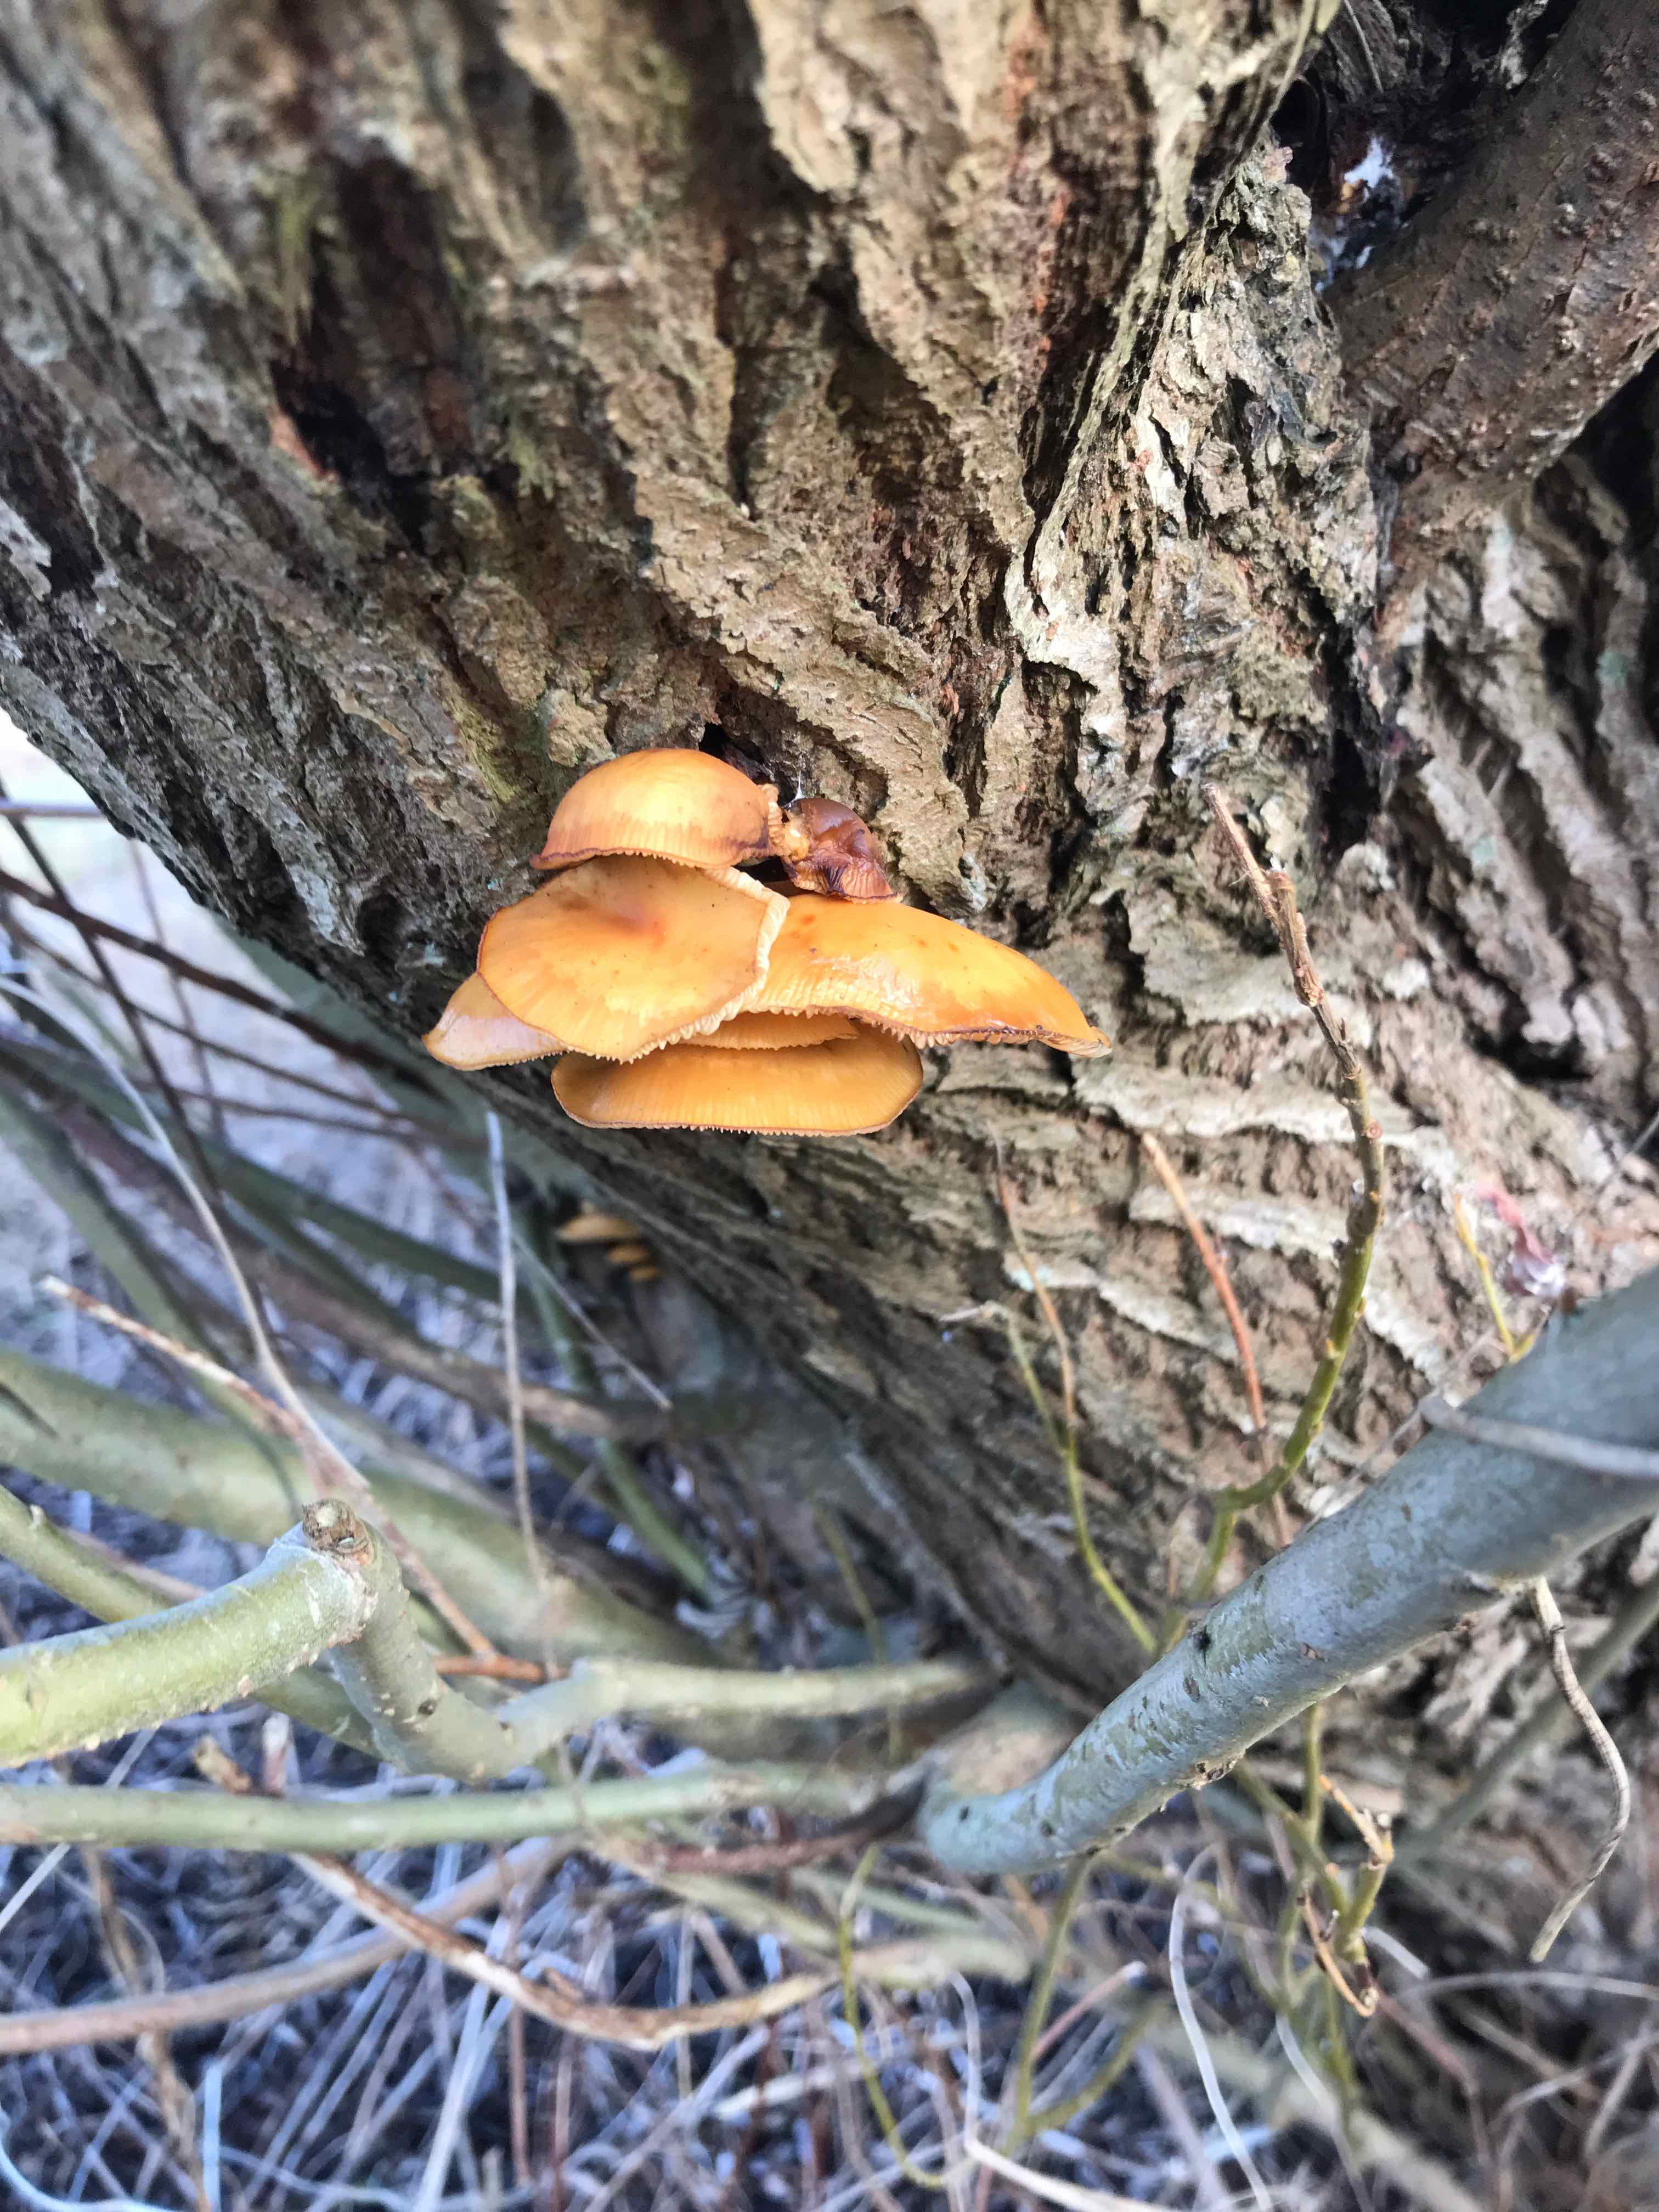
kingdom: Fungi
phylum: Basidiomycota
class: Agaricomycetes
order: Agaricales
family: Physalacriaceae
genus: Flammulina
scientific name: Flammulina velutipes
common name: gul fløjlsfod
